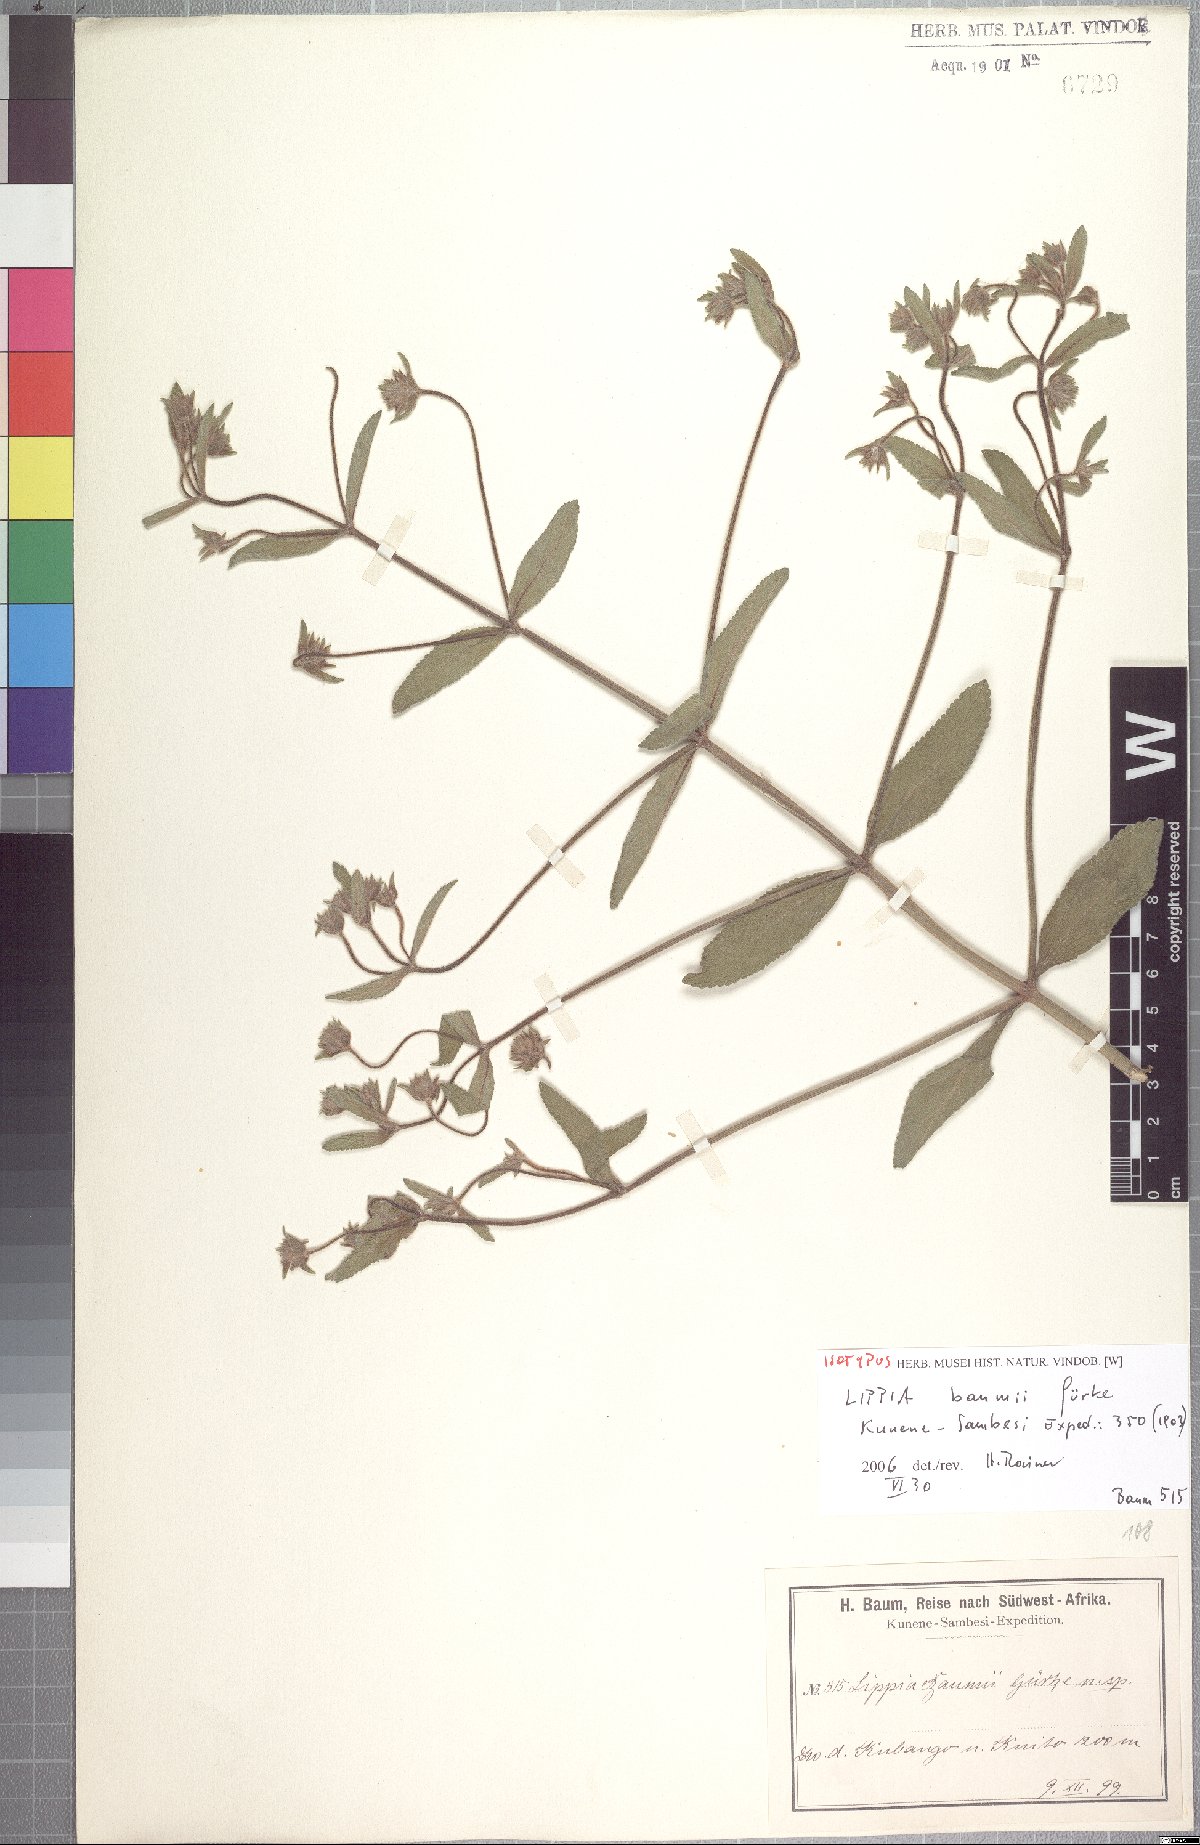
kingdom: Plantae
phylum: Tracheophyta
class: Magnoliopsida
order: Lamiales
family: Verbenaceae
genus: Lippia
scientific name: Lippia baumii
